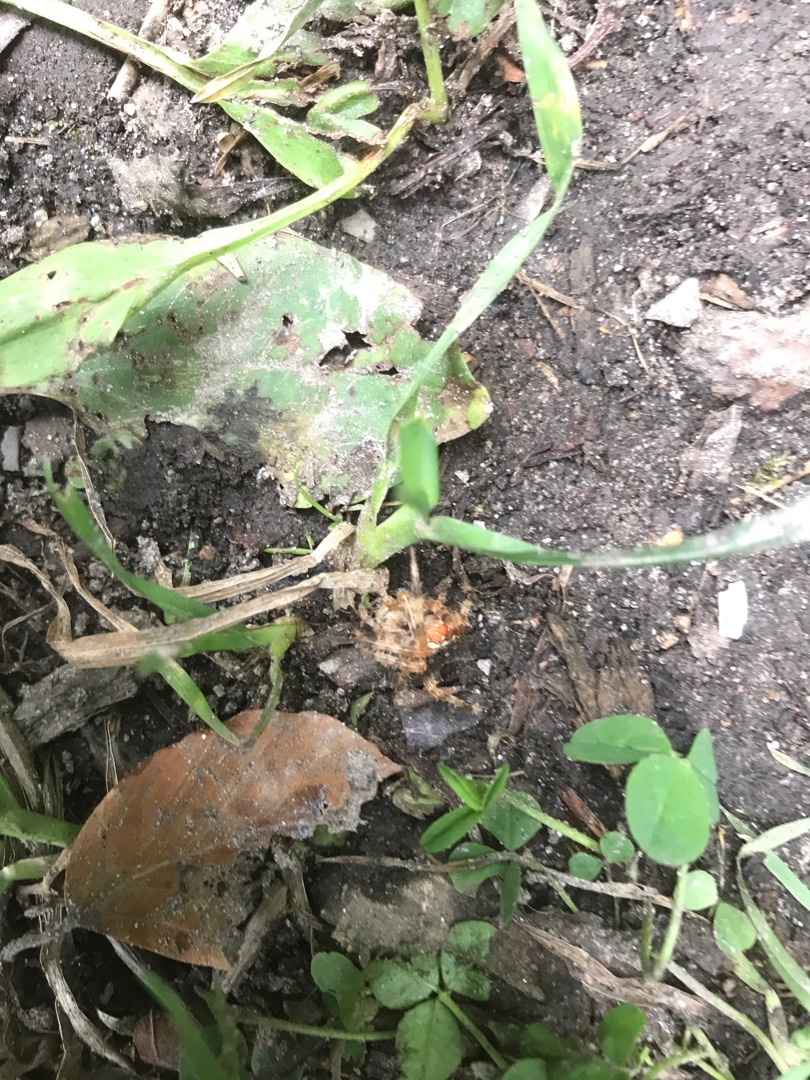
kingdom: Animalia
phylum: Arthropoda
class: Arachnida
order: Araneae
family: Araneidae
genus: Araneus
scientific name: Araneus diadematus
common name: Korsedderkop
